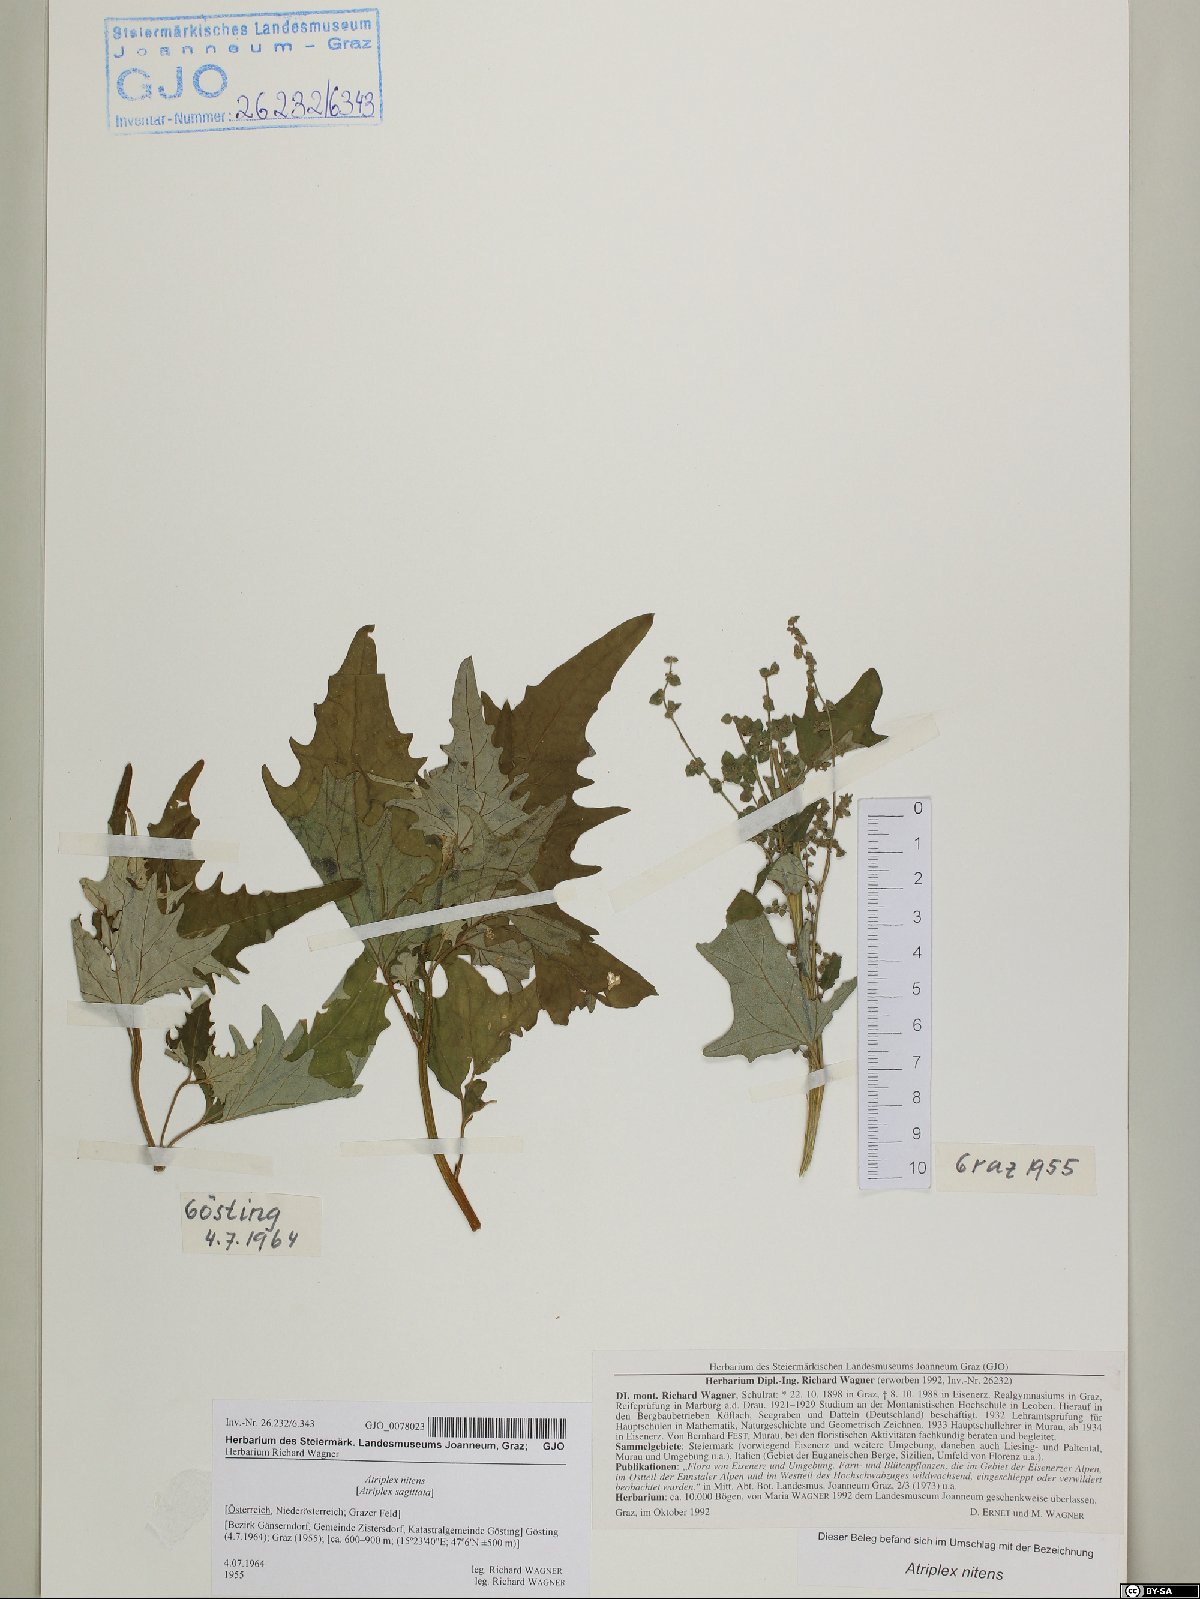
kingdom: Plantae
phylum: Tracheophyta
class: Magnoliopsida
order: Caryophyllales
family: Amaranthaceae
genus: Atriplex
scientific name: Atriplex sagittata
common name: Purple orache
